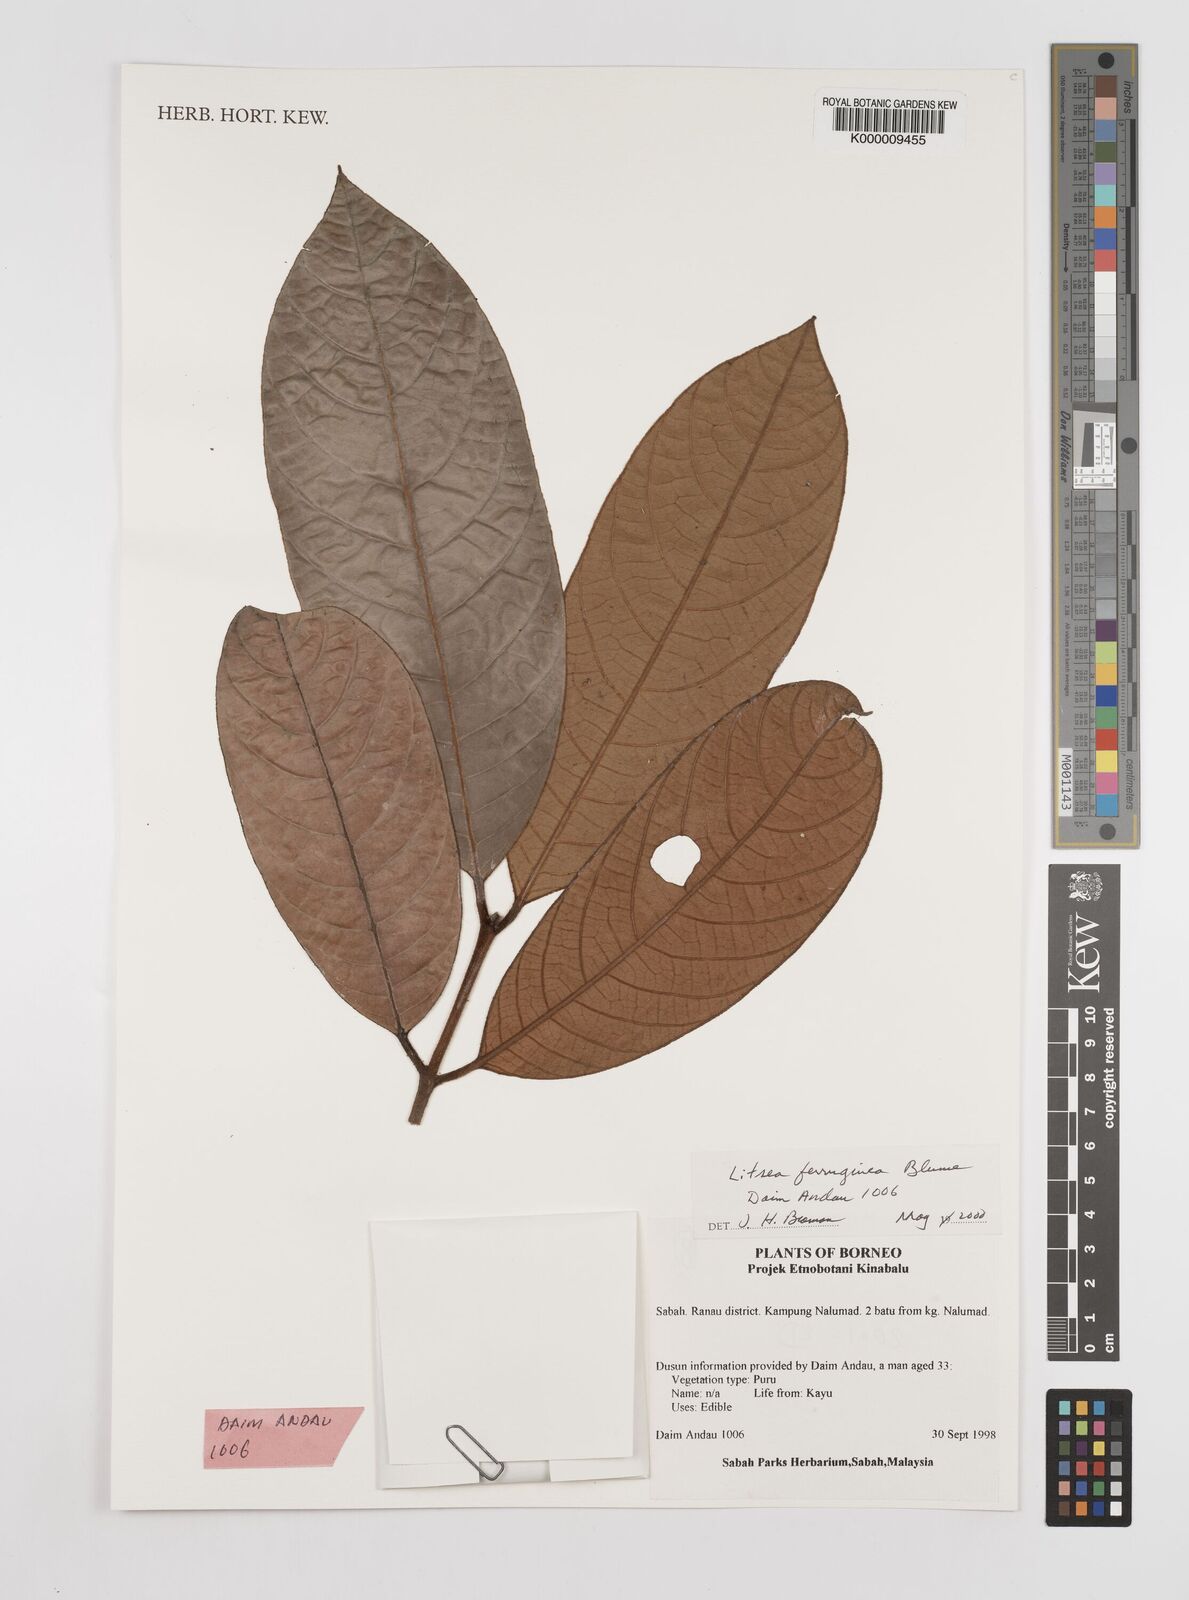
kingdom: Plantae
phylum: Tracheophyta
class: Magnoliopsida
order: Laurales
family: Lauraceae
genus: Litsea
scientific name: Litsea ferruginea
